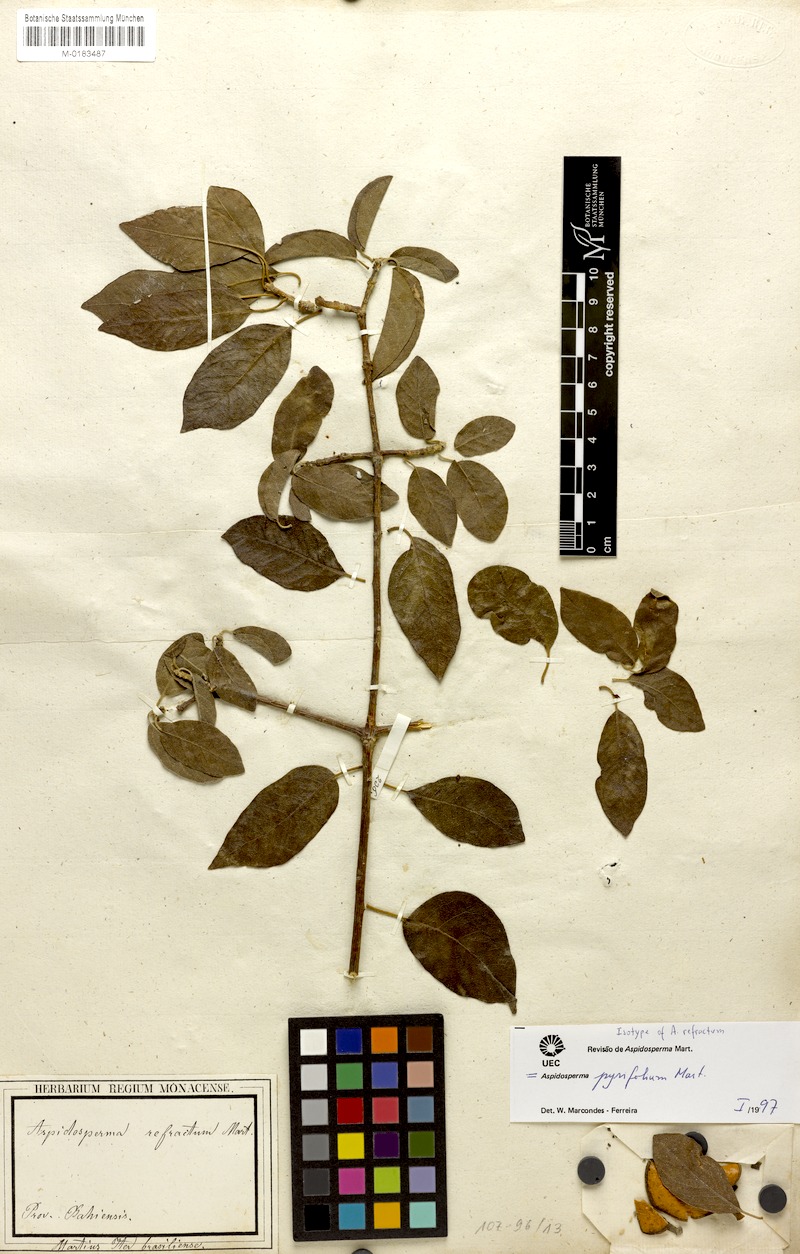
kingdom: Plantae
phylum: Tracheophyta
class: Magnoliopsida
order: Gentianales
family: Apocynaceae
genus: Aspidosperma
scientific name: Aspidosperma pyrifolium
